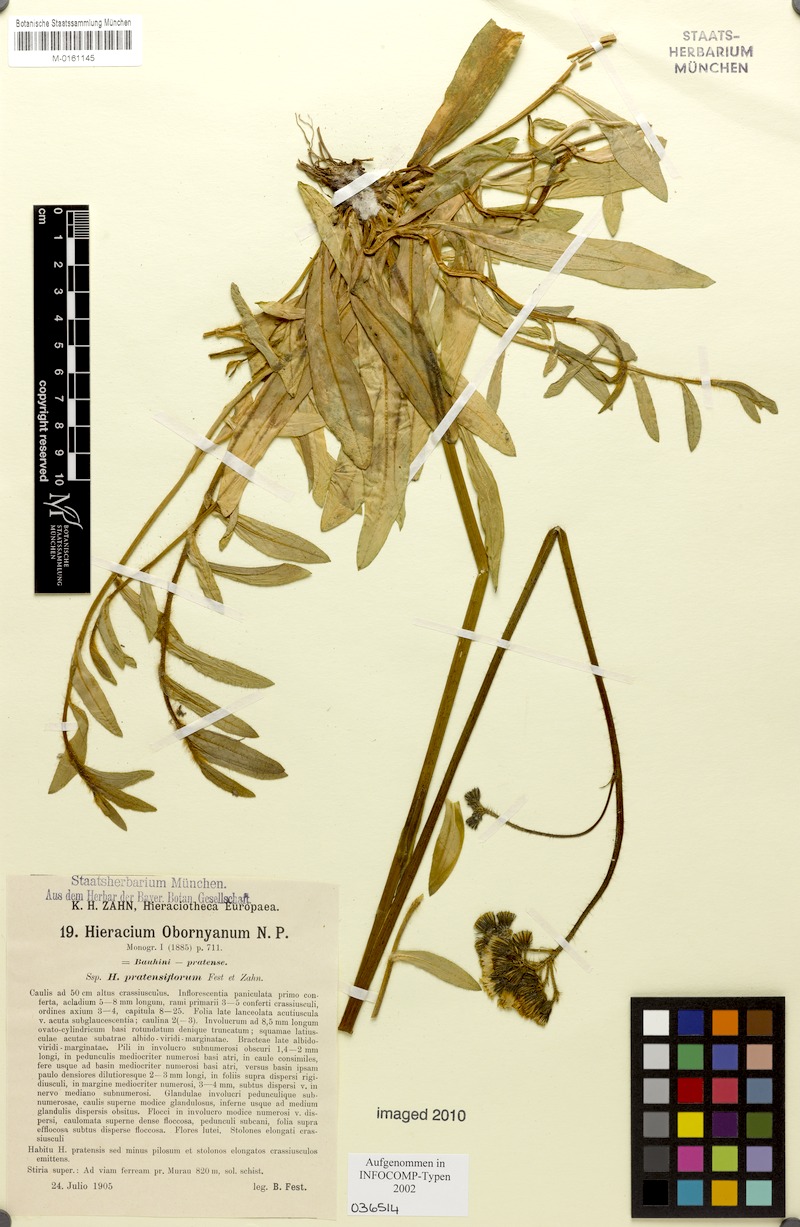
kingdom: Plantae
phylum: Tracheophyta
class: Magnoliopsida
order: Asterales
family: Asteraceae
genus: Pilosella
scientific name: Pilosella polymastix
